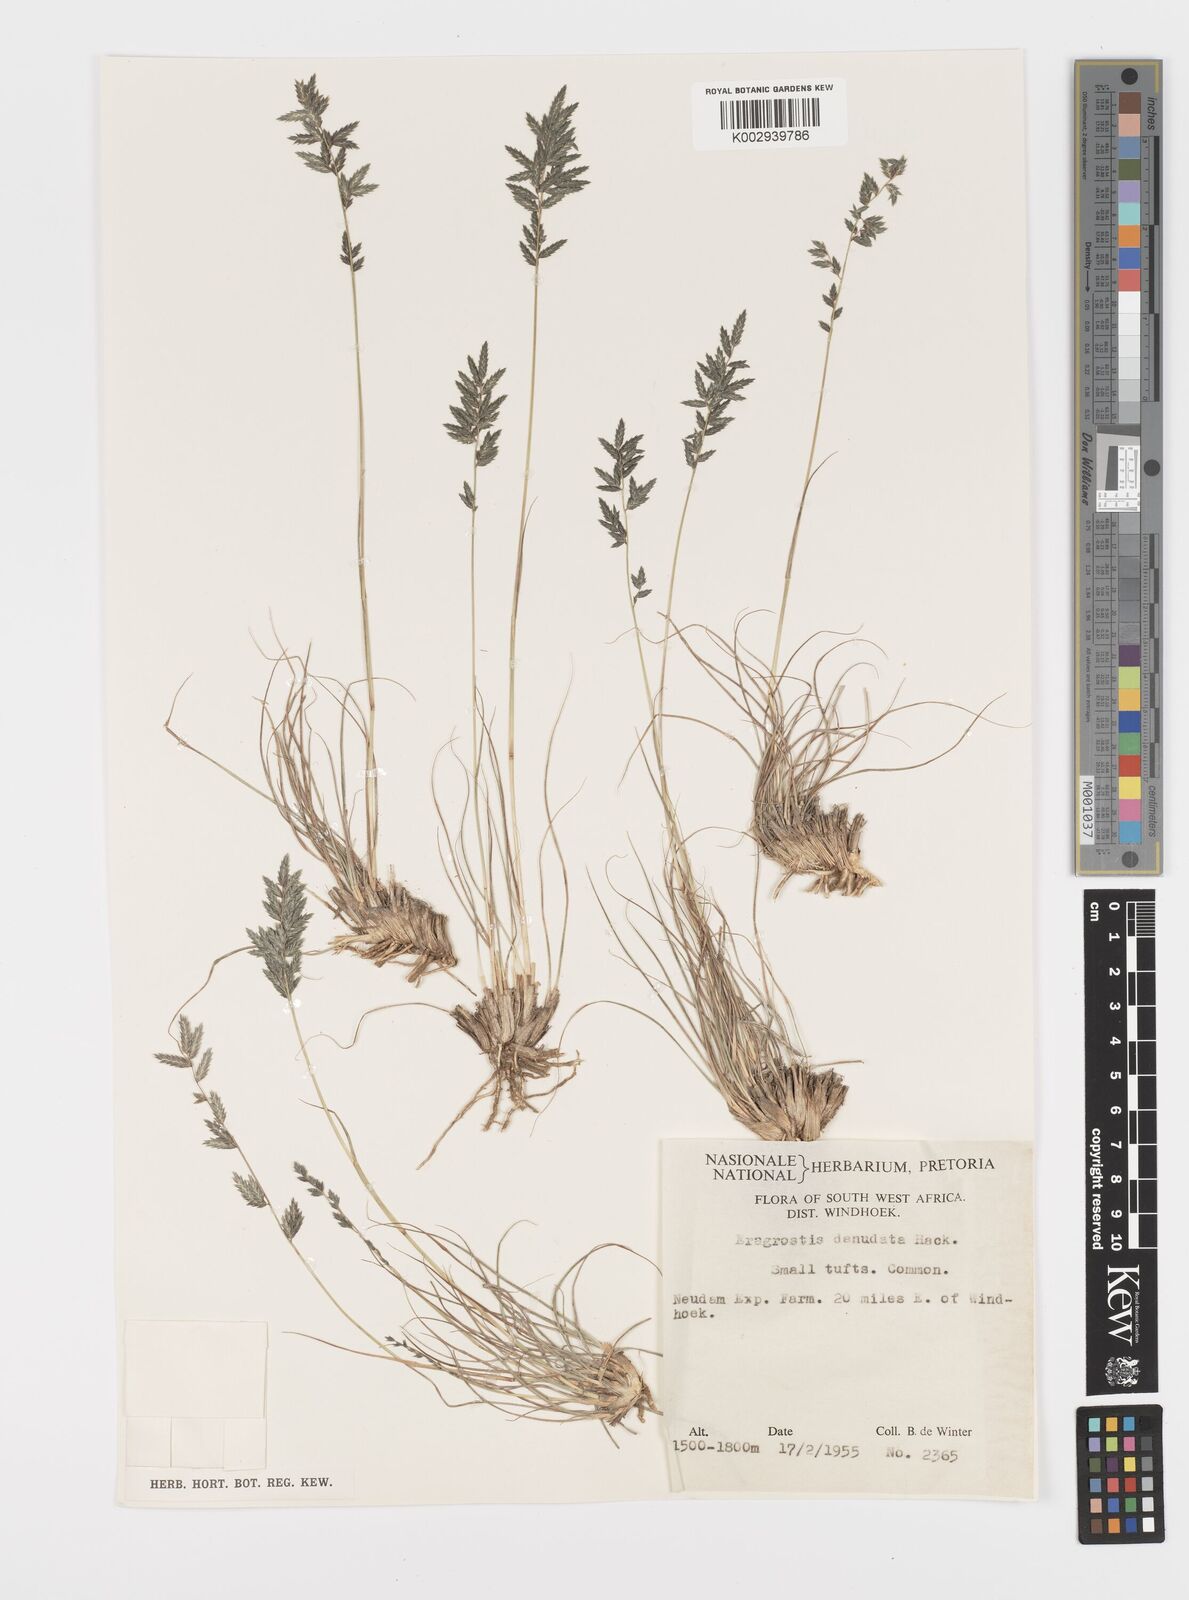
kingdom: Plantae
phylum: Tracheophyta
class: Liliopsida
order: Poales
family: Poaceae
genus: Eragrostis
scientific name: Eragrostis nindensis
